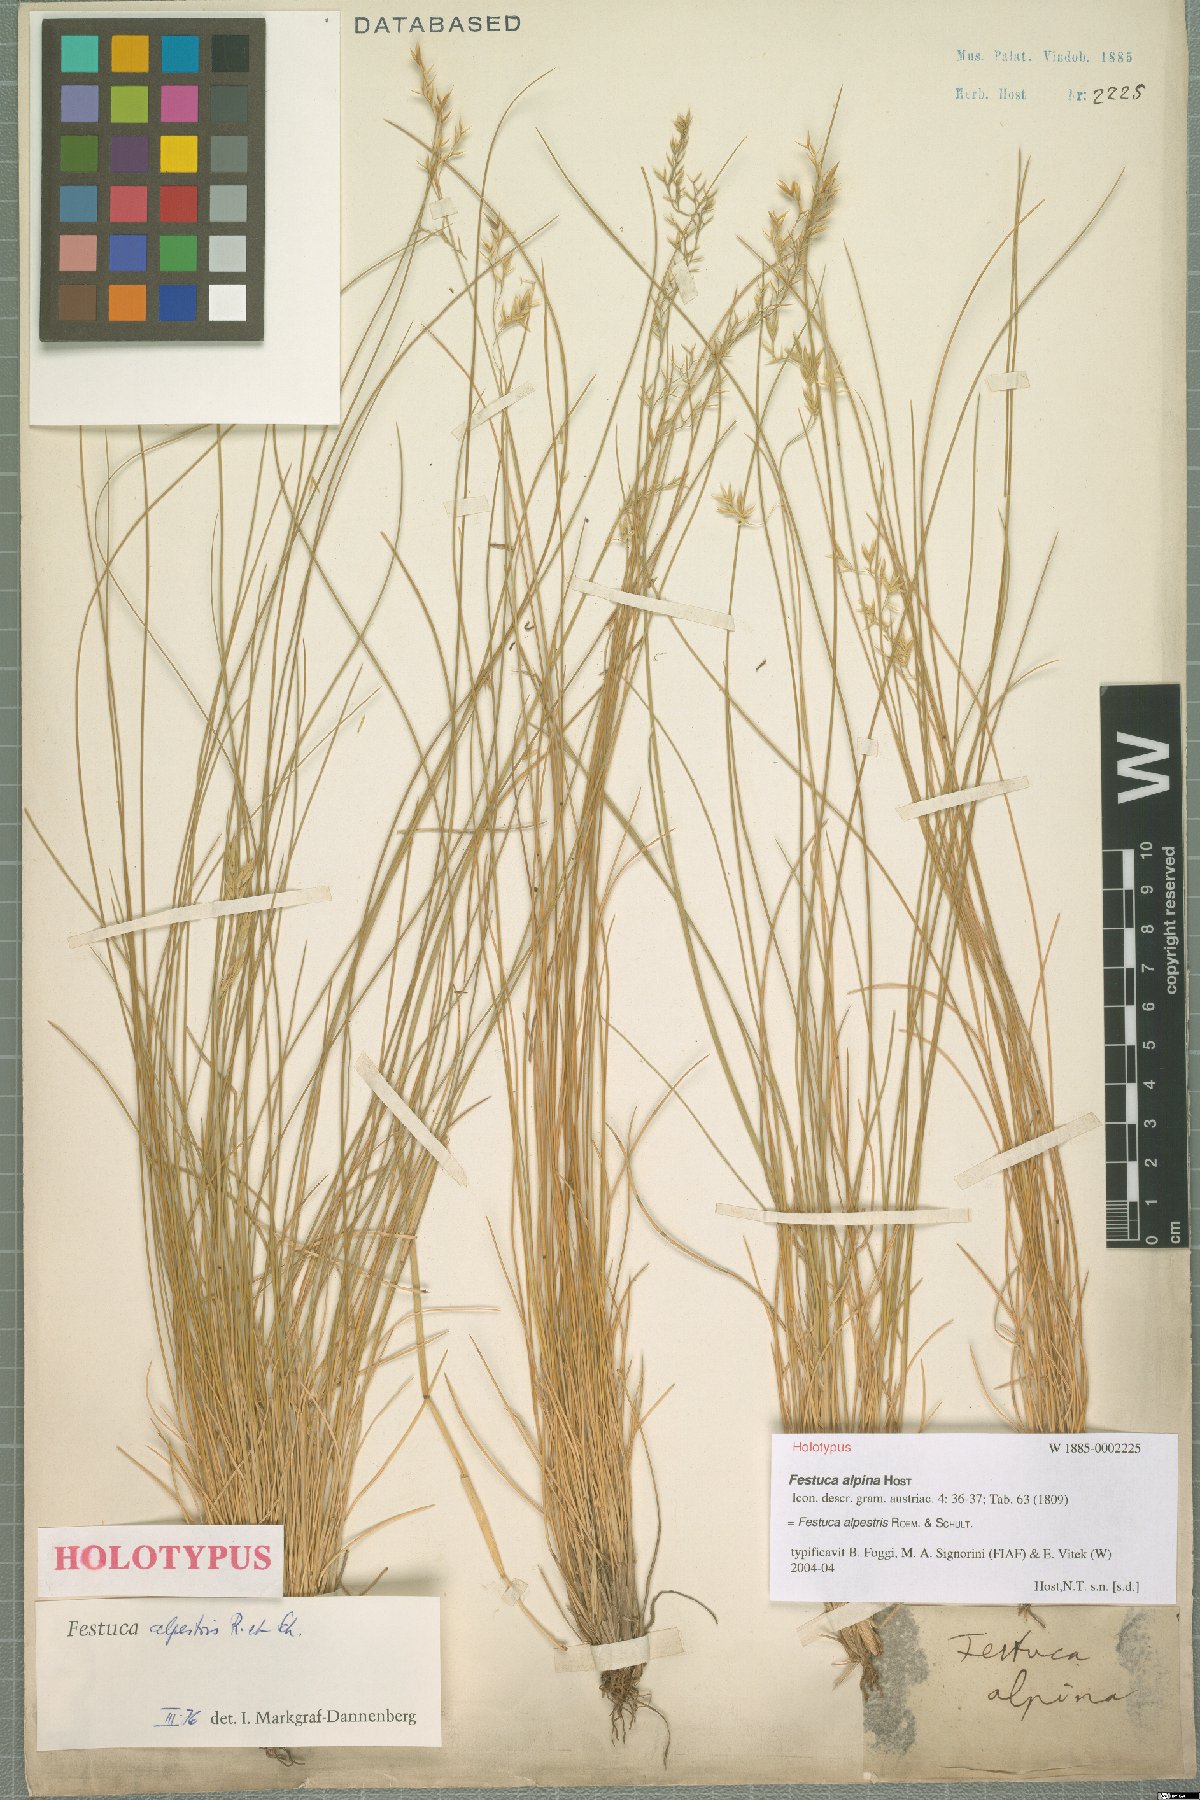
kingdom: Plantae
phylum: Tracheophyta
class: Liliopsida
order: Poales
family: Poaceae
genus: Festuca
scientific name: Festuca alpestris
